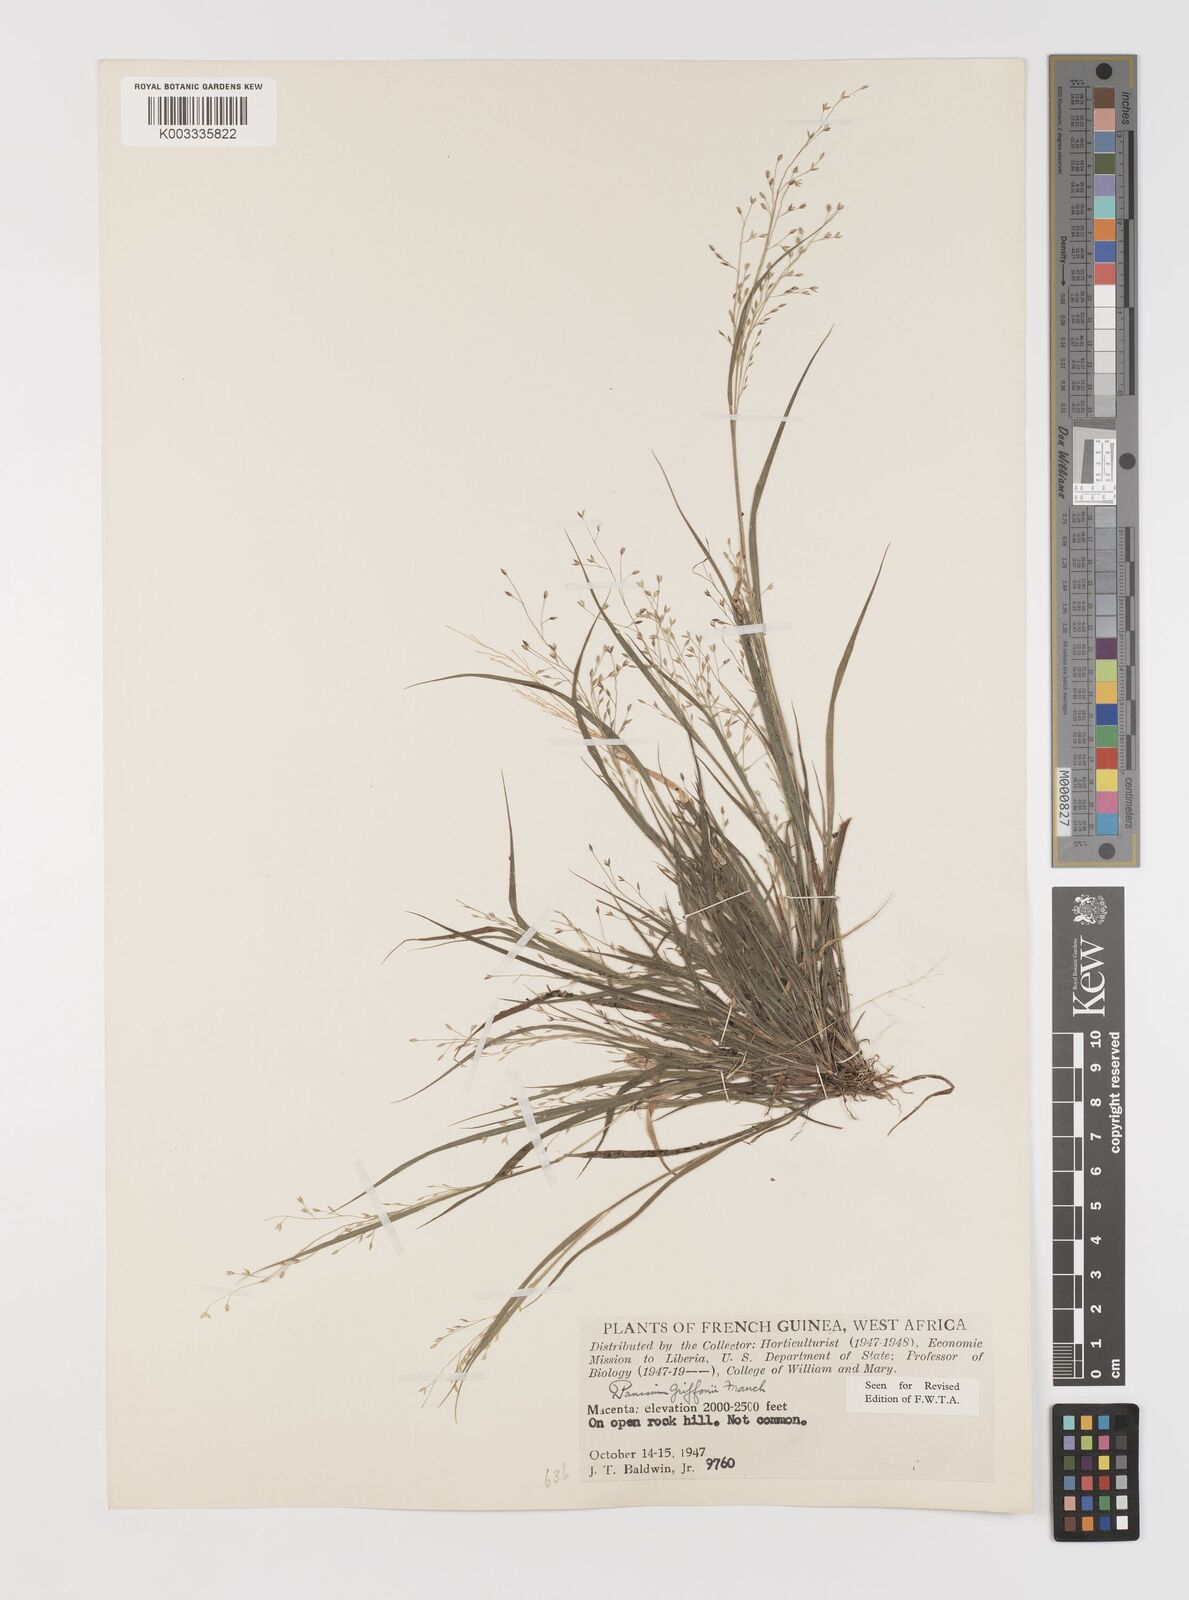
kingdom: Plantae
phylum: Tracheophyta
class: Liliopsida
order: Poales
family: Poaceae
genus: Panicum
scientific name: Panicum griffonii
